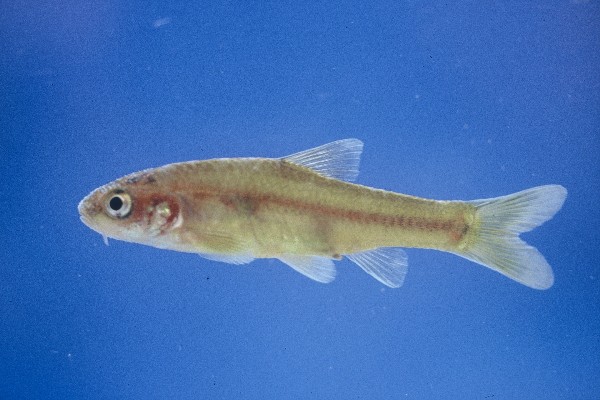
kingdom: Animalia
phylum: Chordata
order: Cypriniformes
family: Cyprinidae
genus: Enteromius
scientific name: Enteromius motebensis
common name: Marico barb
